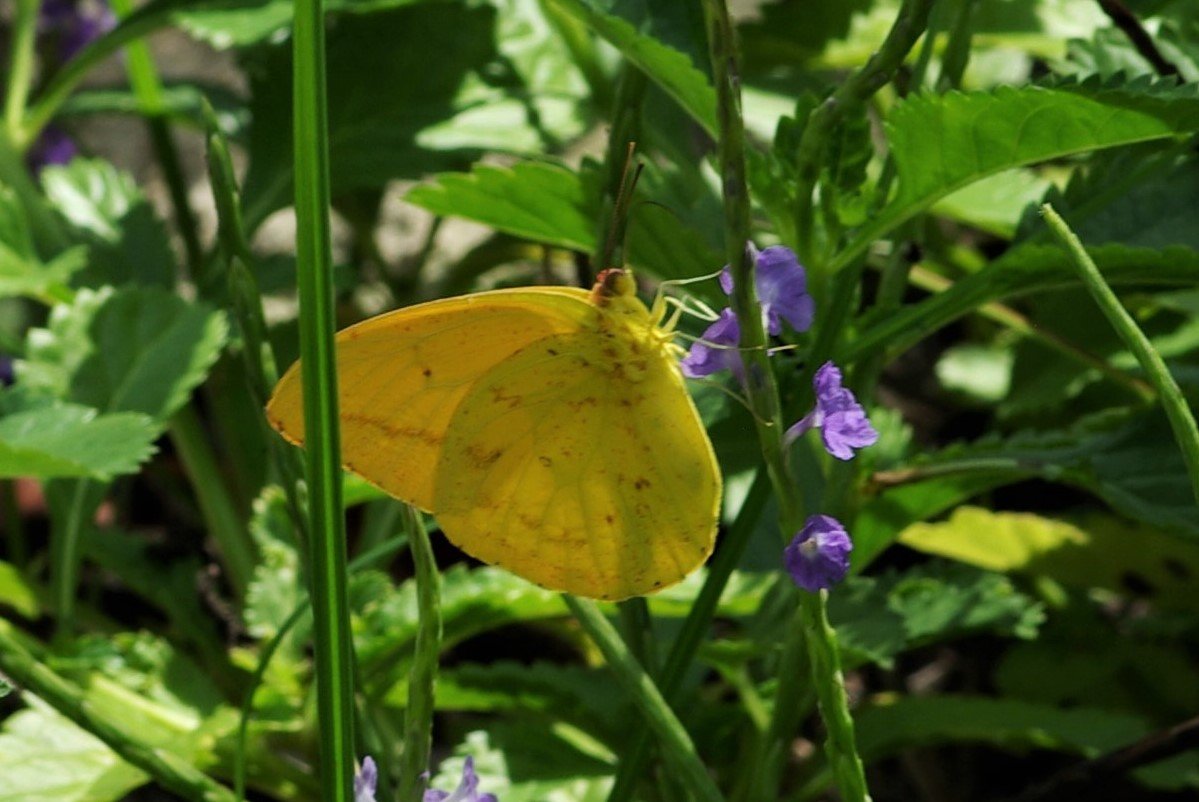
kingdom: Animalia
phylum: Arthropoda
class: Insecta
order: Lepidoptera
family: Pieridae
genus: Phoebis
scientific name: Phoebis agarithe
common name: Large Orange Sulphur
